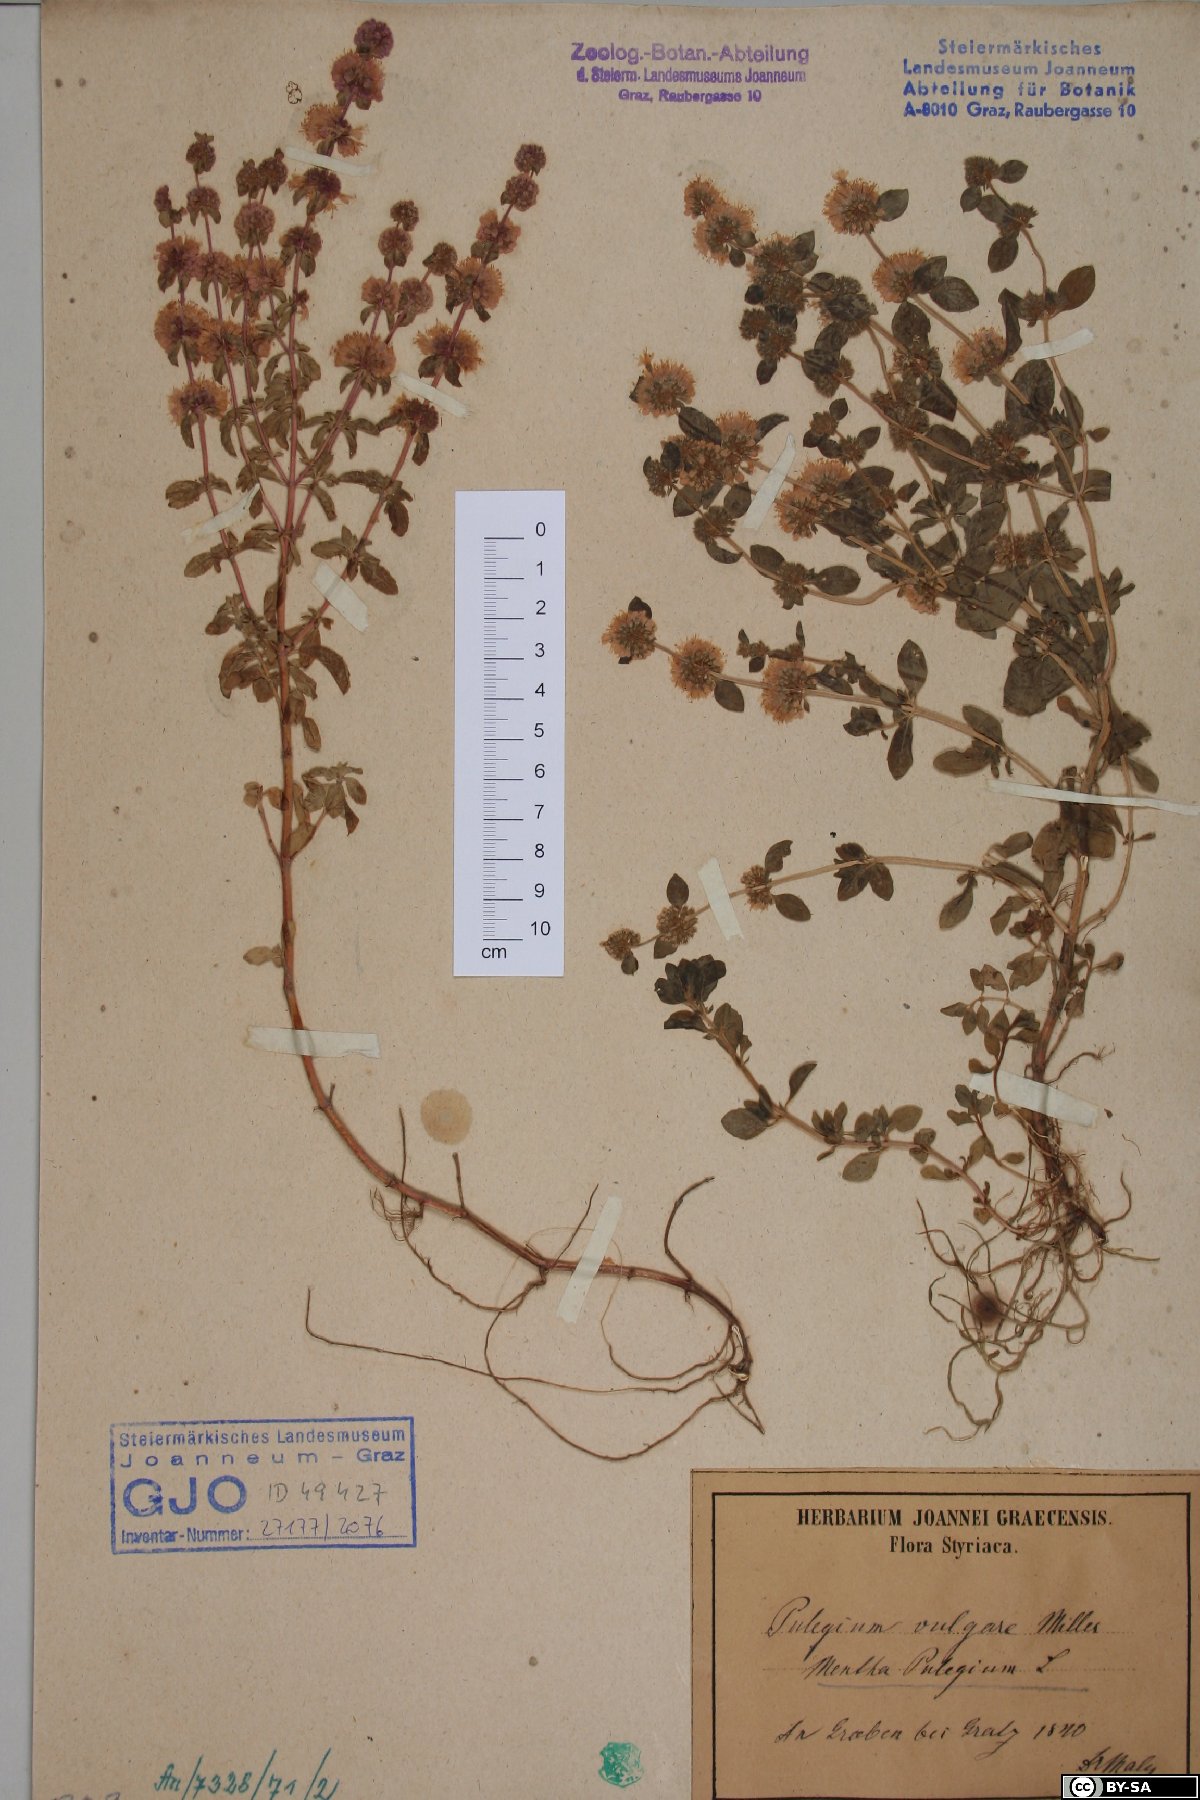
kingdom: Plantae
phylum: Tracheophyta
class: Magnoliopsida
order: Lamiales
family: Lamiaceae
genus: Mentha
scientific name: Mentha pulegium
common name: Pennyroyal
